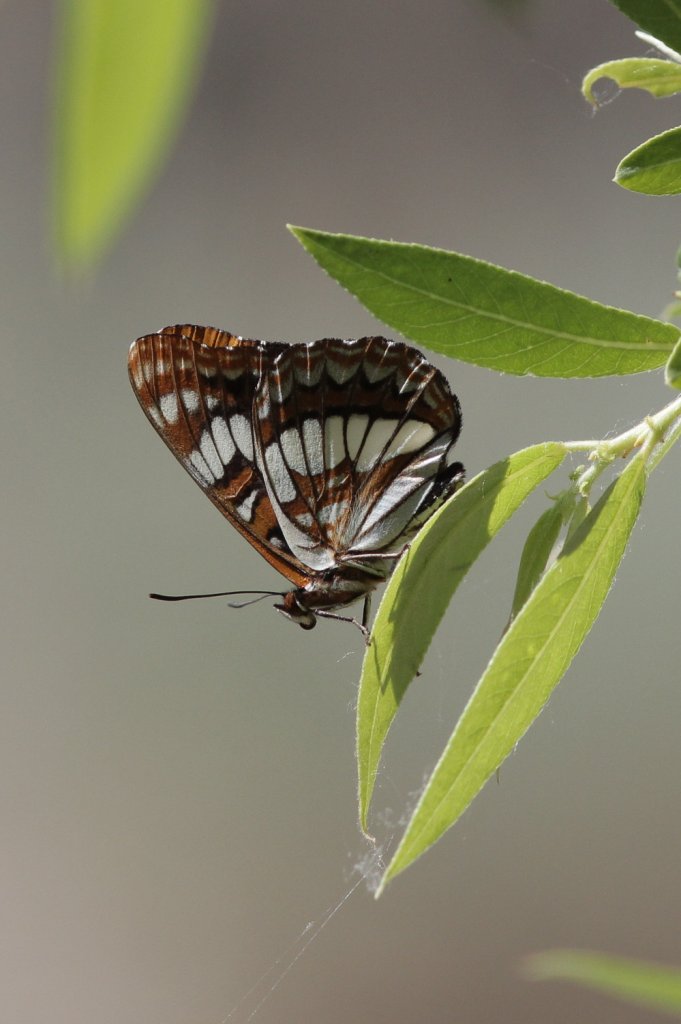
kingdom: Animalia
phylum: Arthropoda
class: Insecta
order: Lepidoptera
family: Nymphalidae
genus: Limenitis
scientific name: Limenitis lorquini
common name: Lorquin's Admiral
